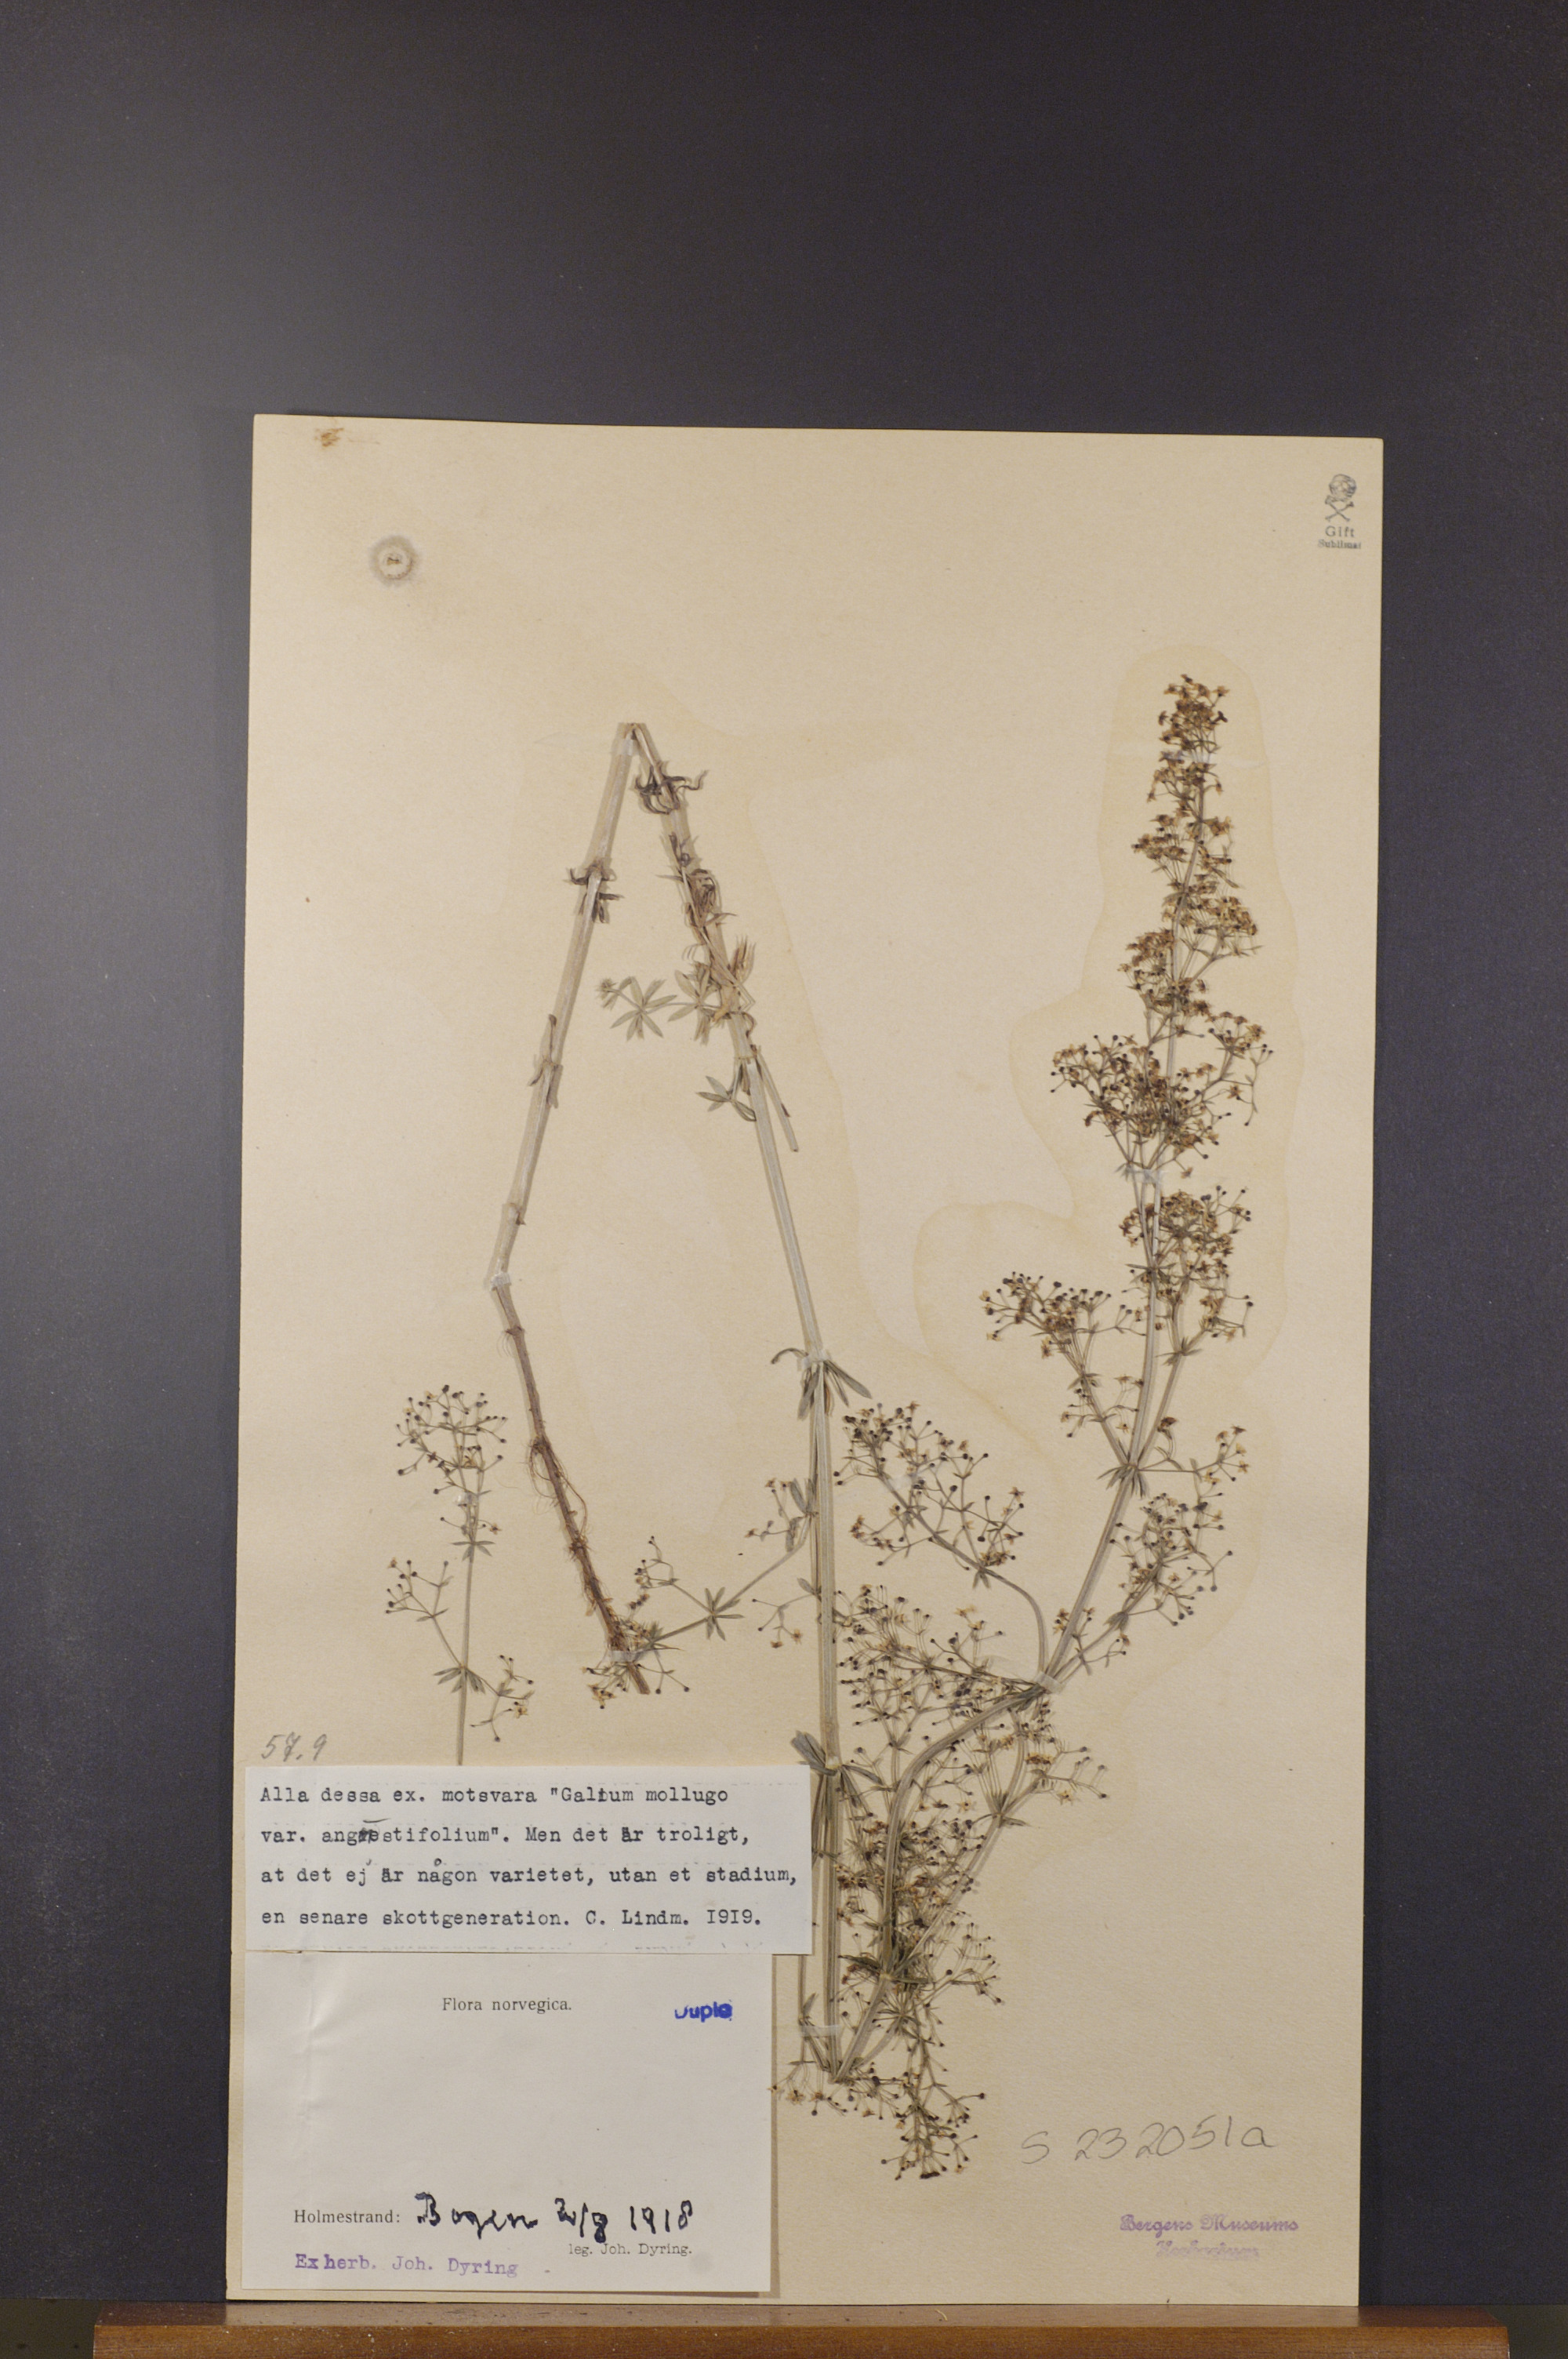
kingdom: Plantae
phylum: Tracheophyta
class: Magnoliopsida
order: Gentianales
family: Rubiaceae
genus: Galium
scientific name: Galium mollugo
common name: Hedge bedstraw
